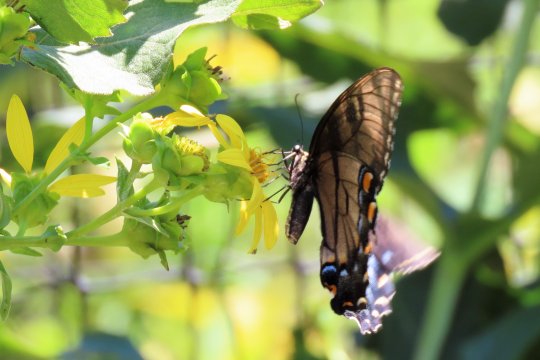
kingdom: Animalia
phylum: Arthropoda
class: Insecta
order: Lepidoptera
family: Papilionidae
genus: Pterourus
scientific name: Pterourus glaucus
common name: Eastern Tiger Swallowtail
